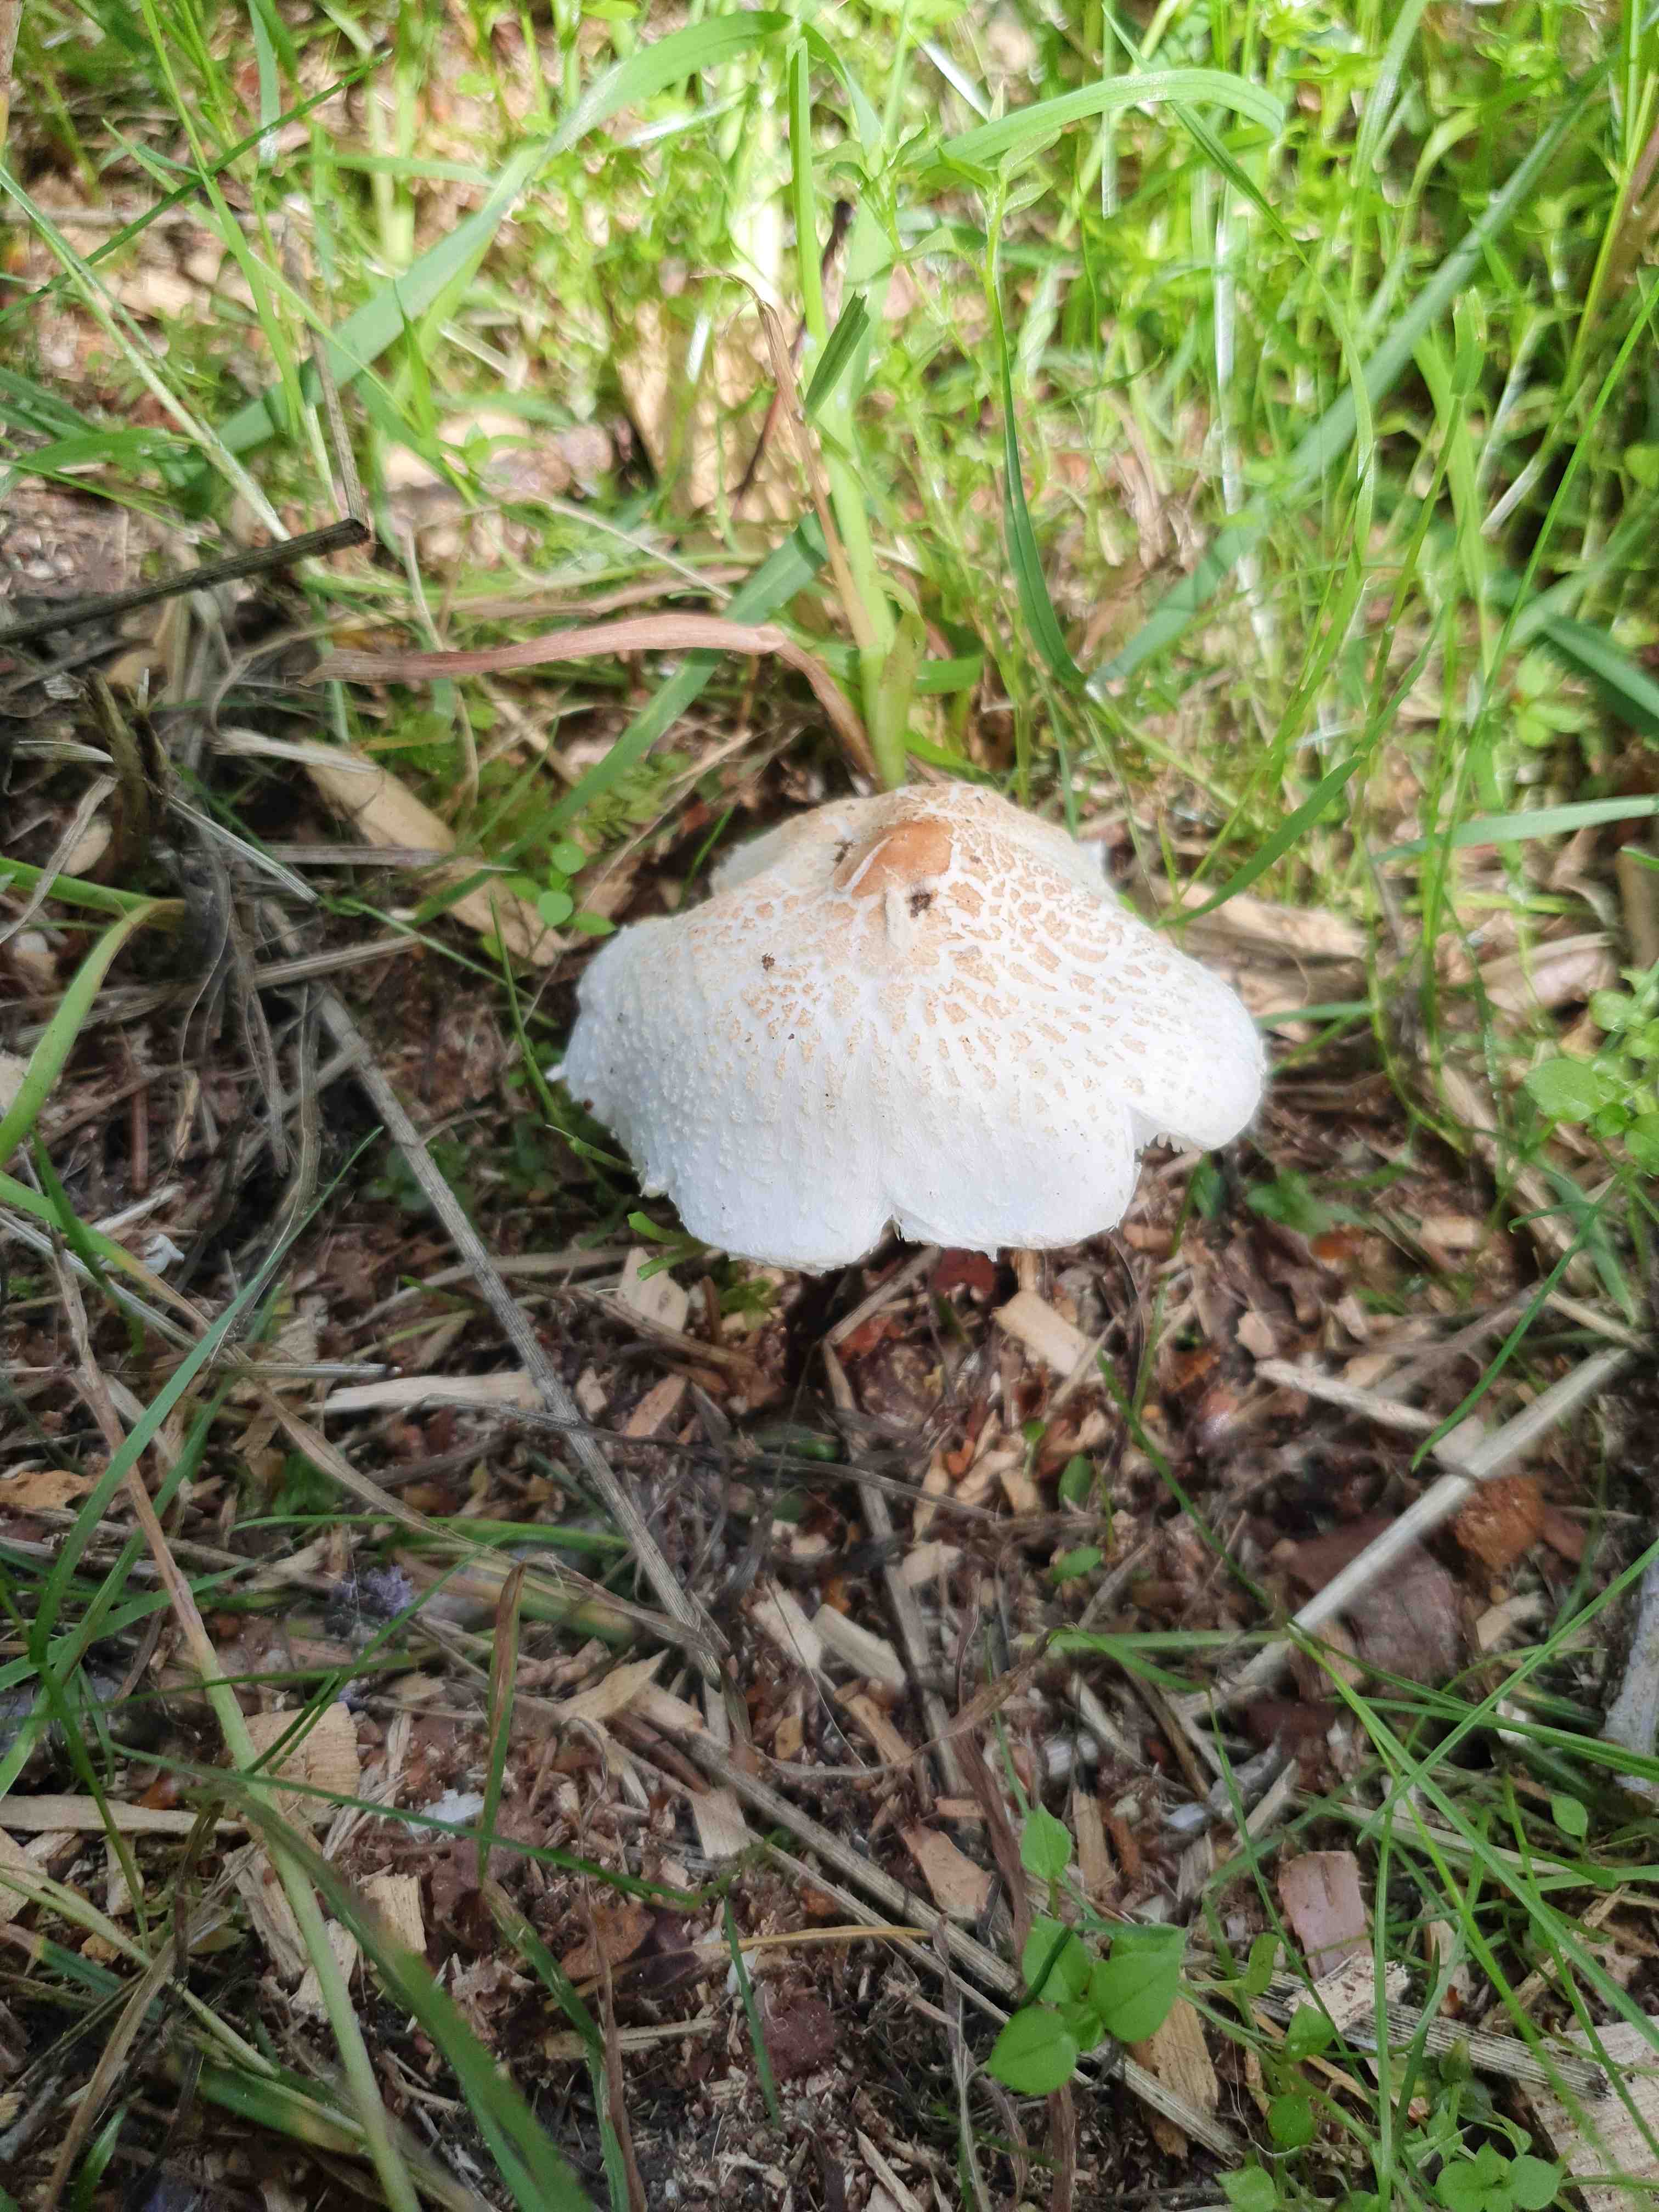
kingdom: Fungi
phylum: Basidiomycota
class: Agaricomycetes
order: Agaricales
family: Agaricaceae
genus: Lepiota
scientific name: Lepiota cristata
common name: stinkende parasolhat
